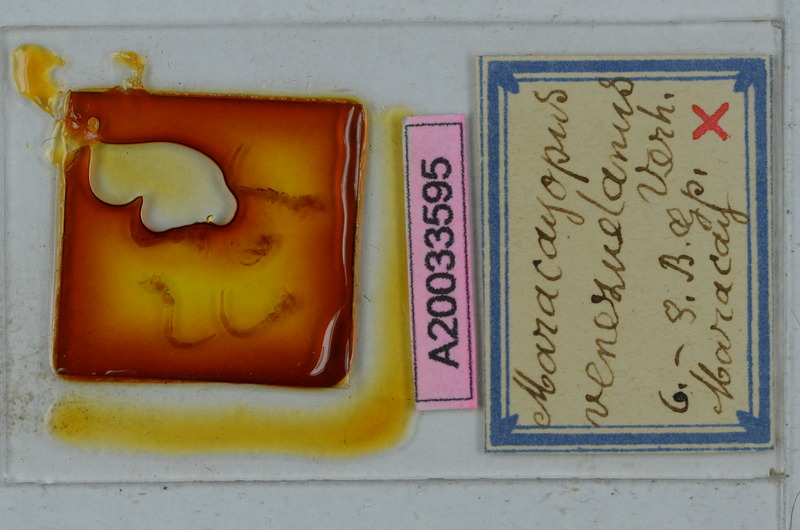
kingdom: Animalia
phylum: Arthropoda
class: Diplopoda
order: Polydesmida
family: Chelodesmidae
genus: Alocodesmus
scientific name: Alocodesmus gracilicornis
